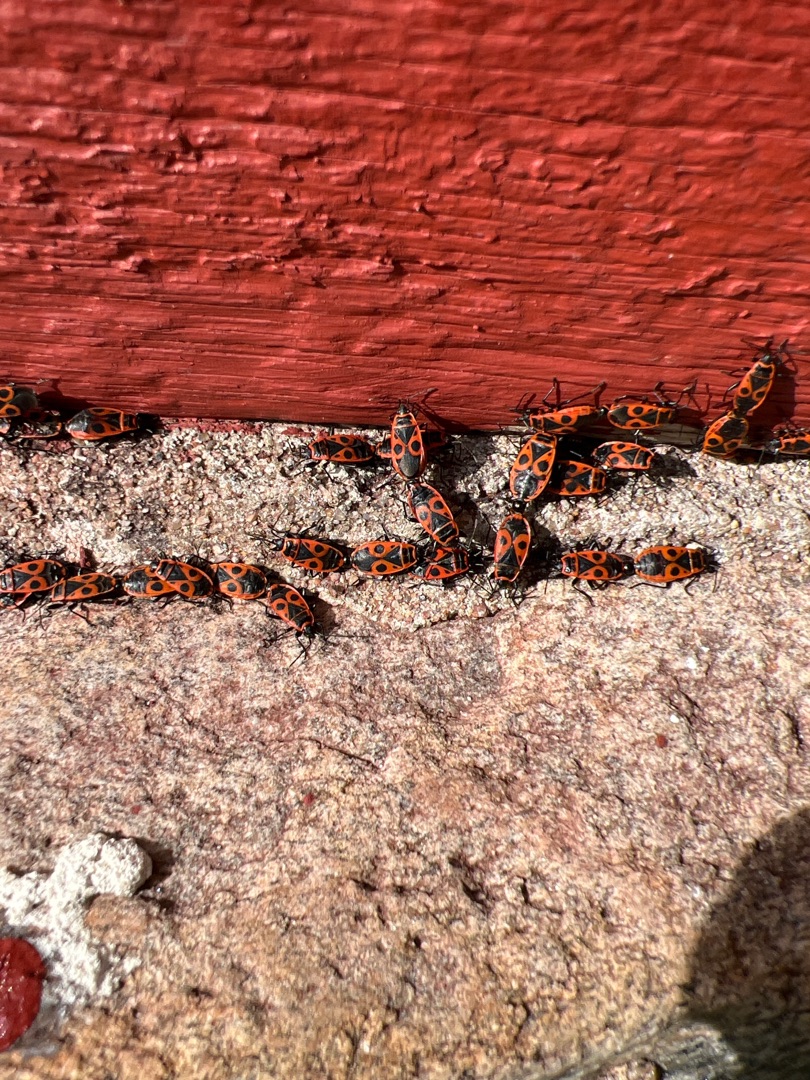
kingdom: Animalia
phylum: Arthropoda
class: Insecta
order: Hemiptera
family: Pyrrhocoridae
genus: Pyrrhocoris
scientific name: Pyrrhocoris apterus
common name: Ildtæge
